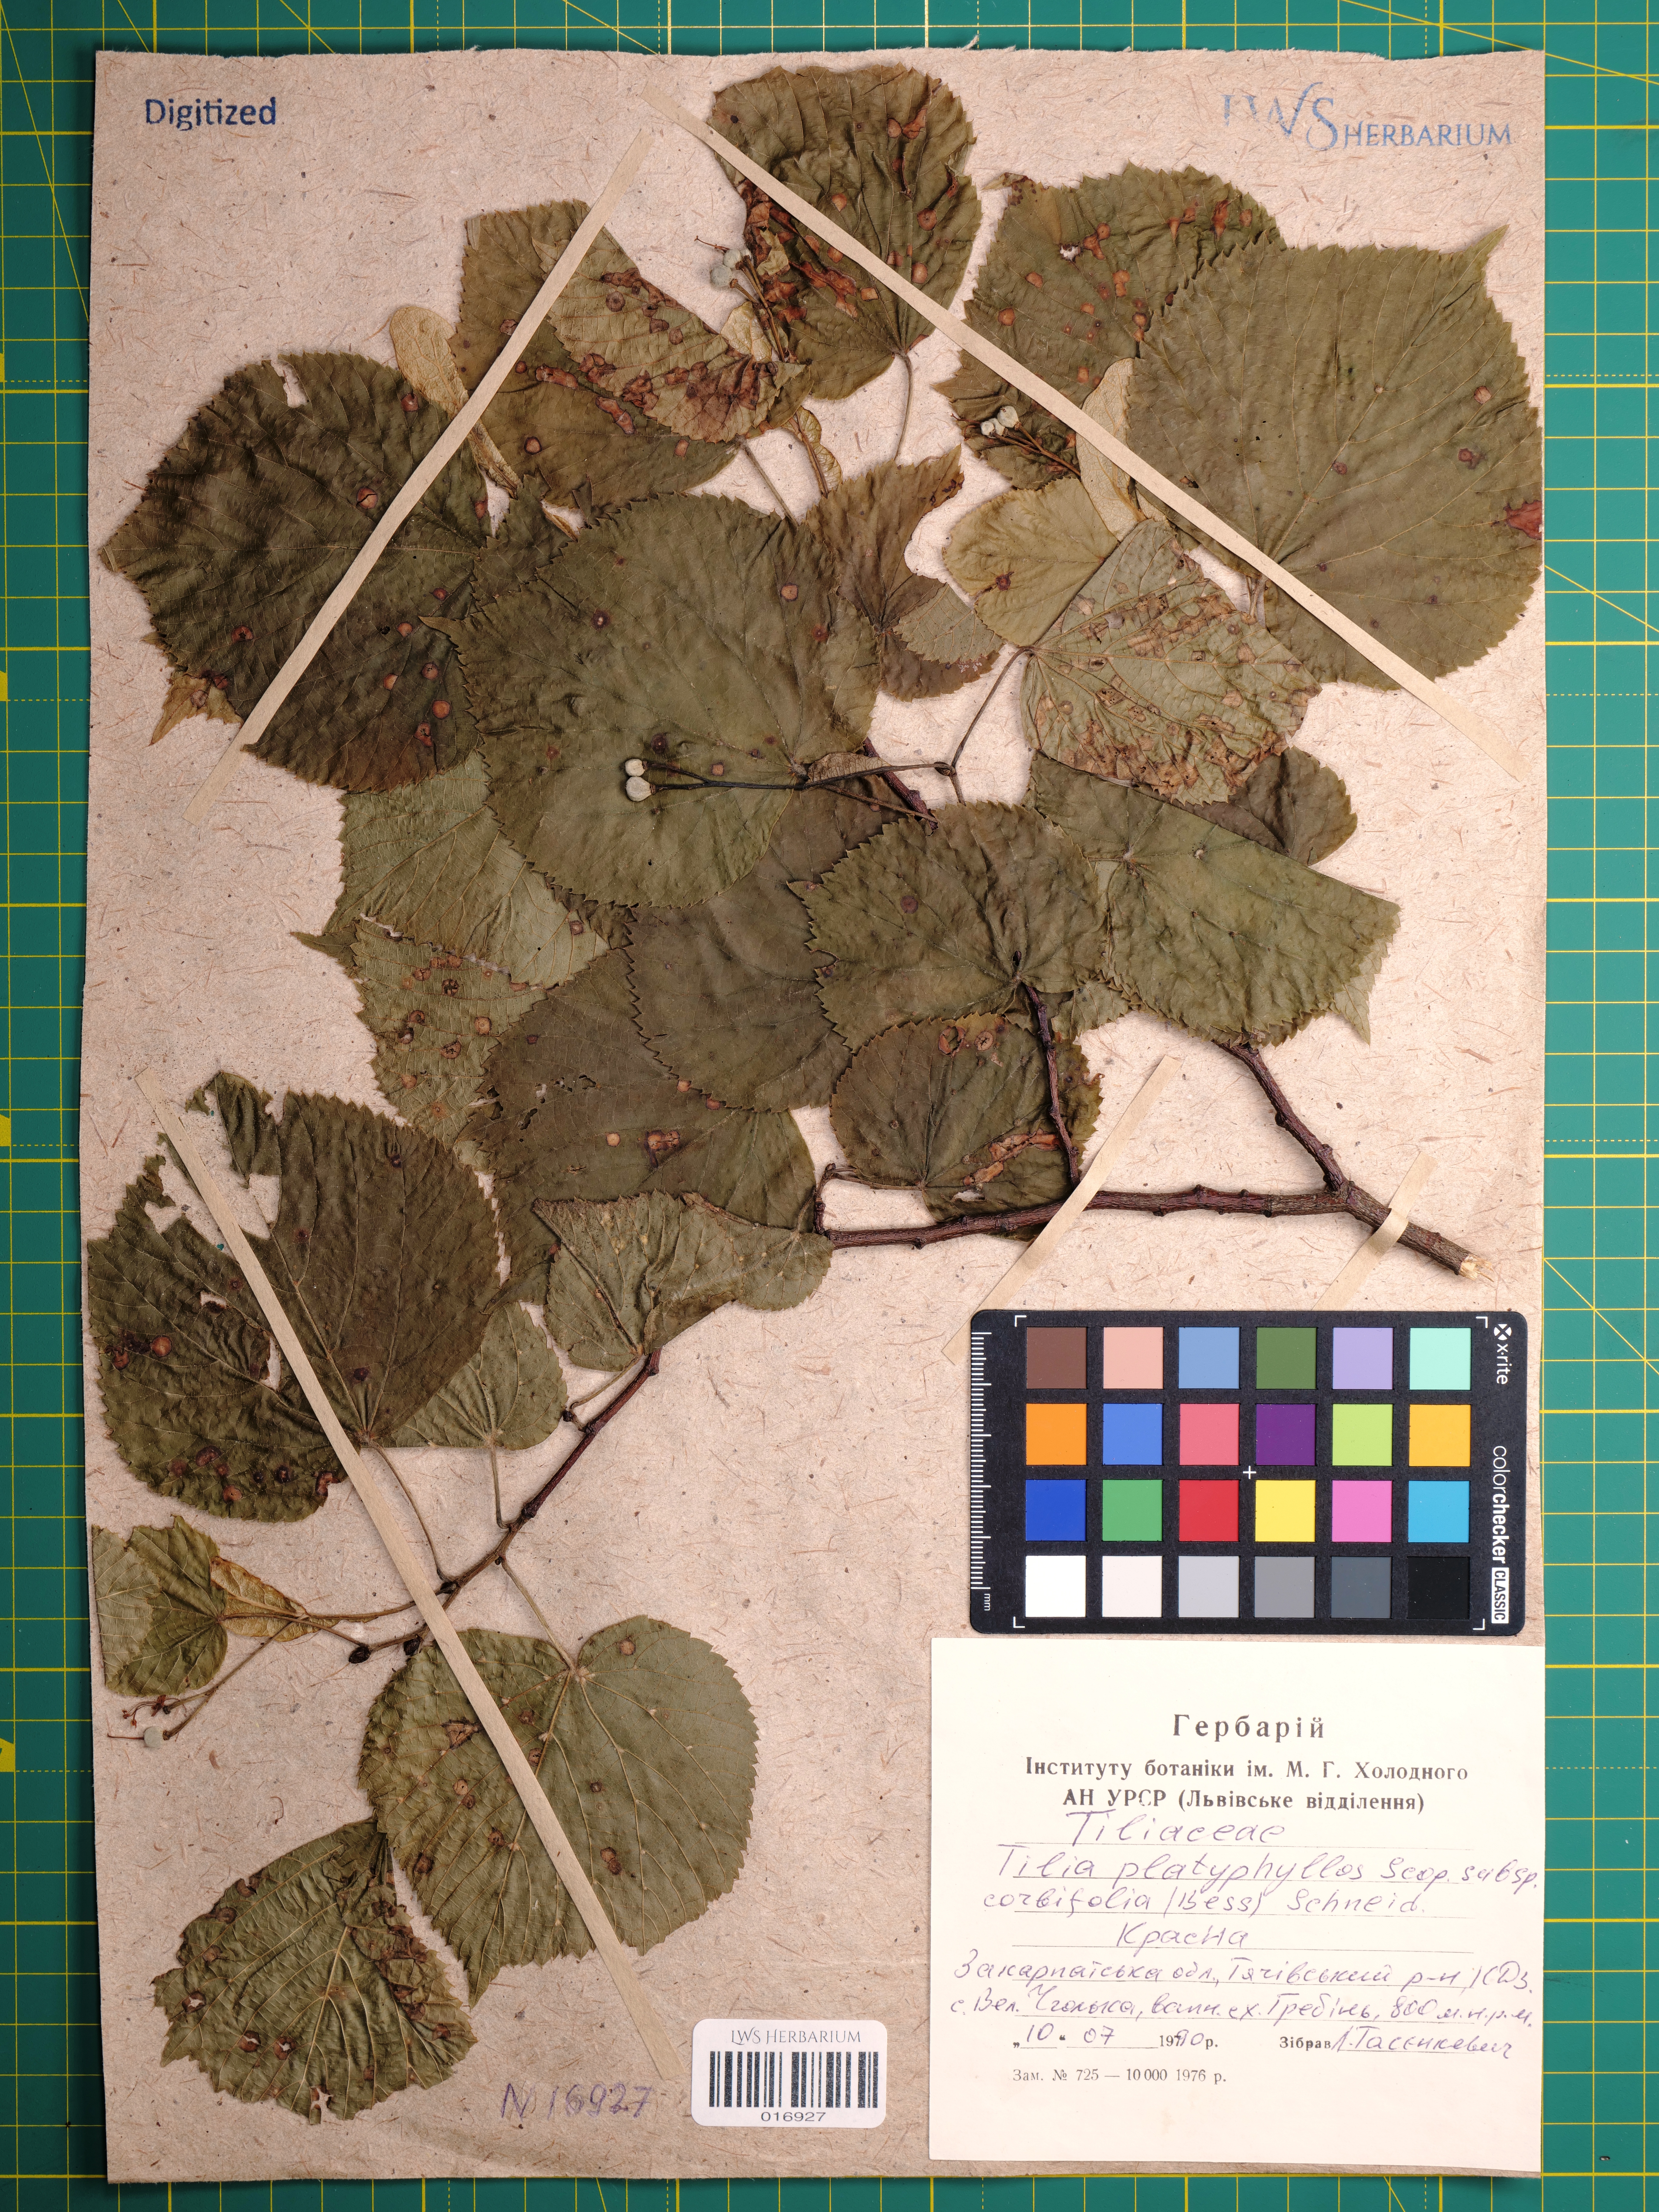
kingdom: Plantae
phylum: Tracheophyta
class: Magnoliopsida
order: Malvales
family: Malvaceae
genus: Tilia
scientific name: Tilia platyphyllos
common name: Large-leaved lime
